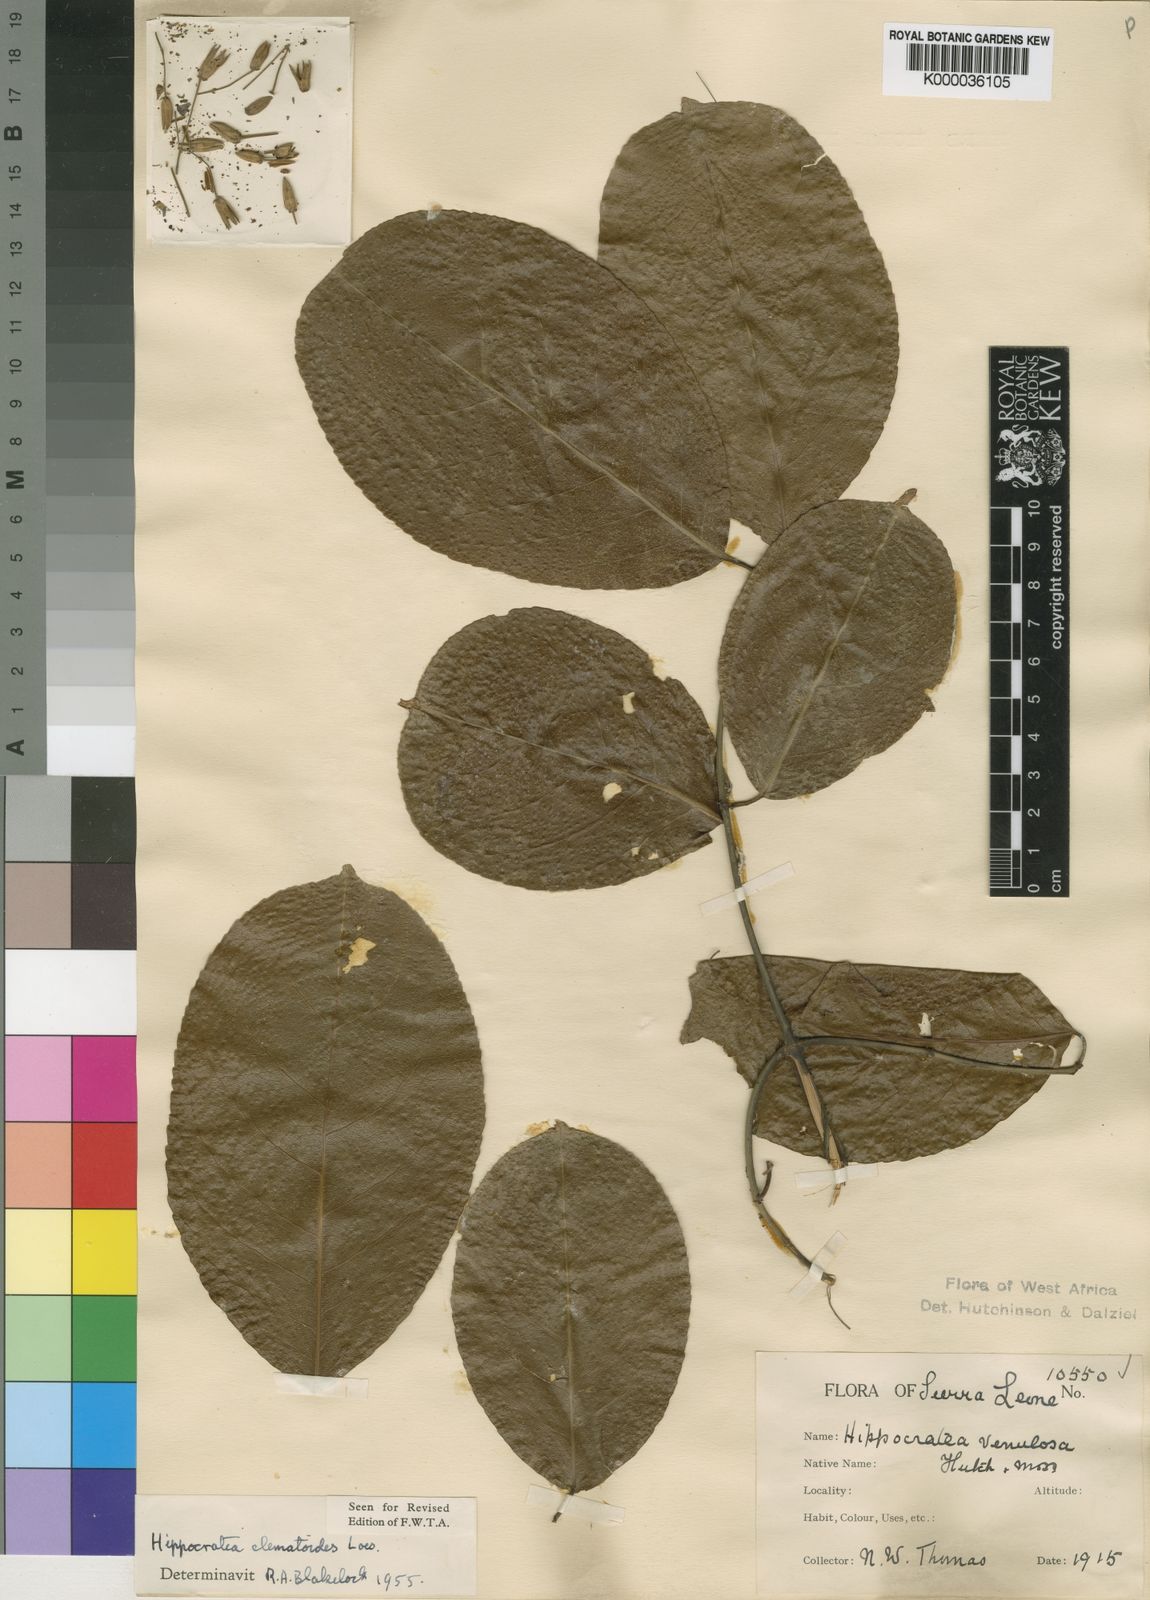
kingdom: Plantae
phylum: Tracheophyta
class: Magnoliopsida
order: Celastrales
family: Celastraceae
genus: Loeseneriella
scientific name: Loeseneriella
